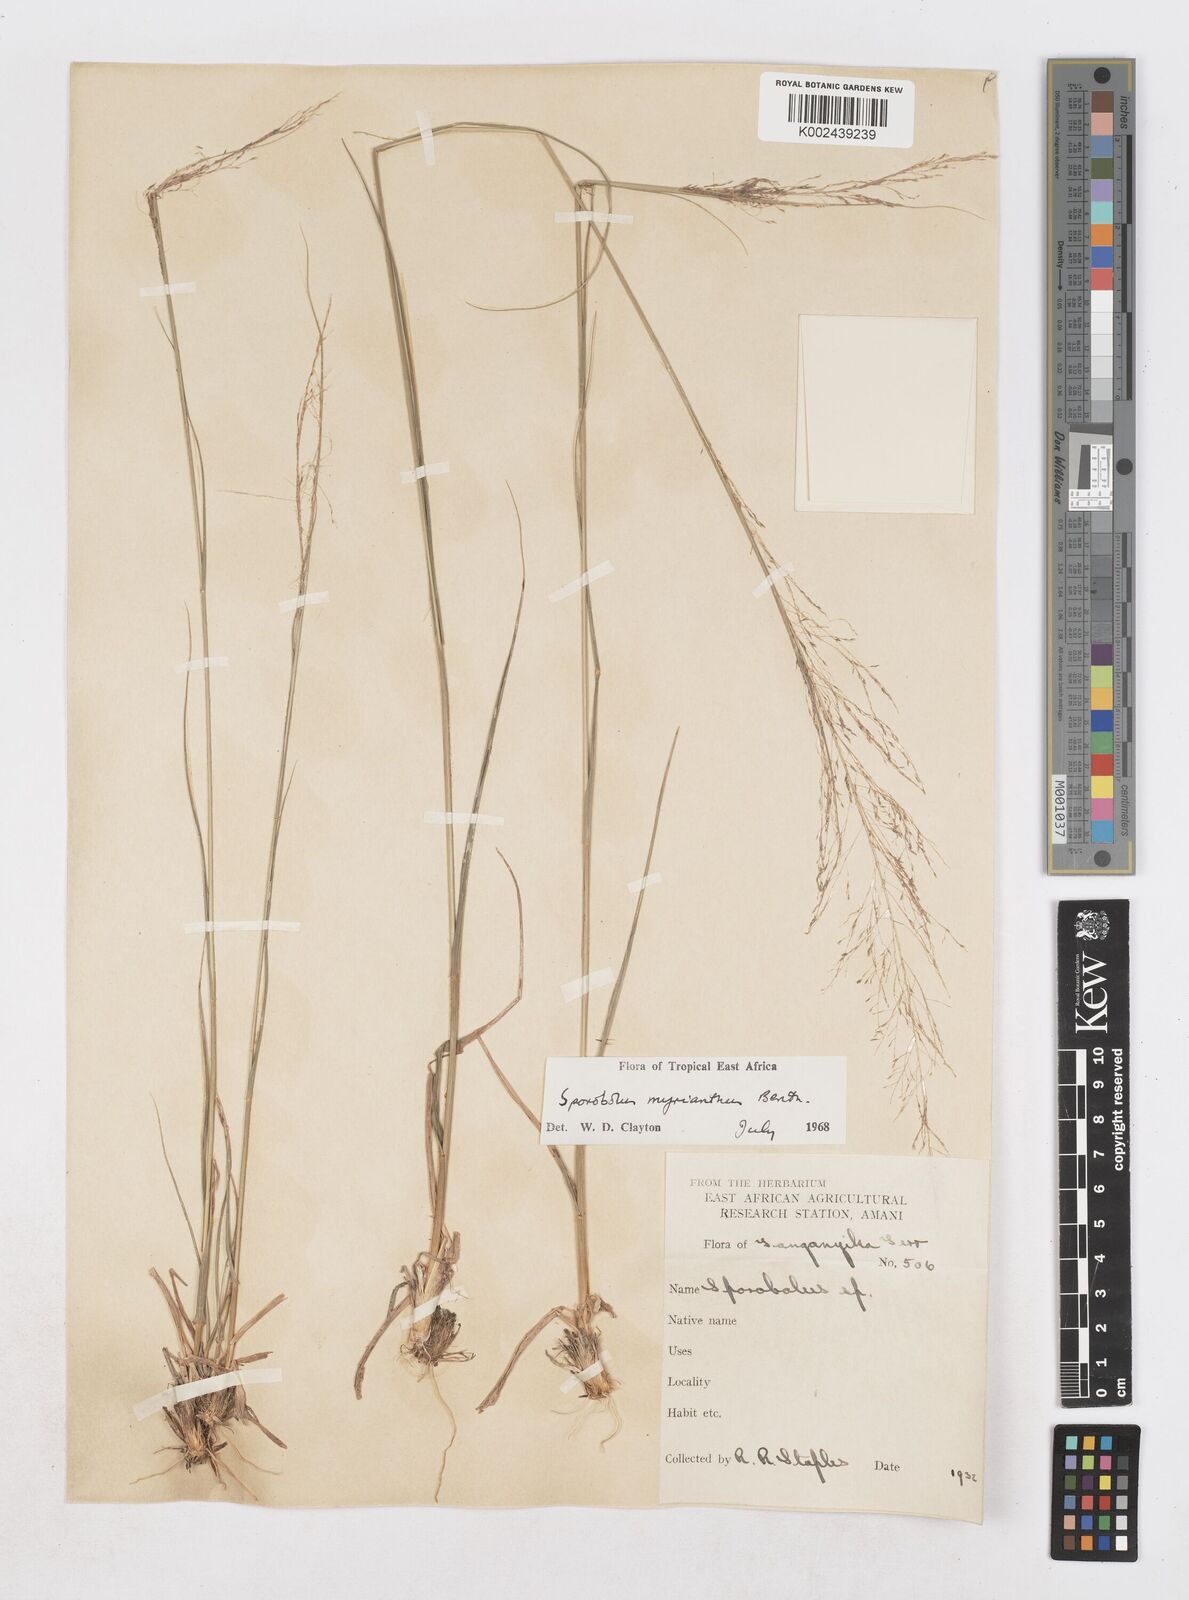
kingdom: Plantae
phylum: Tracheophyta
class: Liliopsida
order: Poales
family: Poaceae
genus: Sporobolus
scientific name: Sporobolus myrianthus
